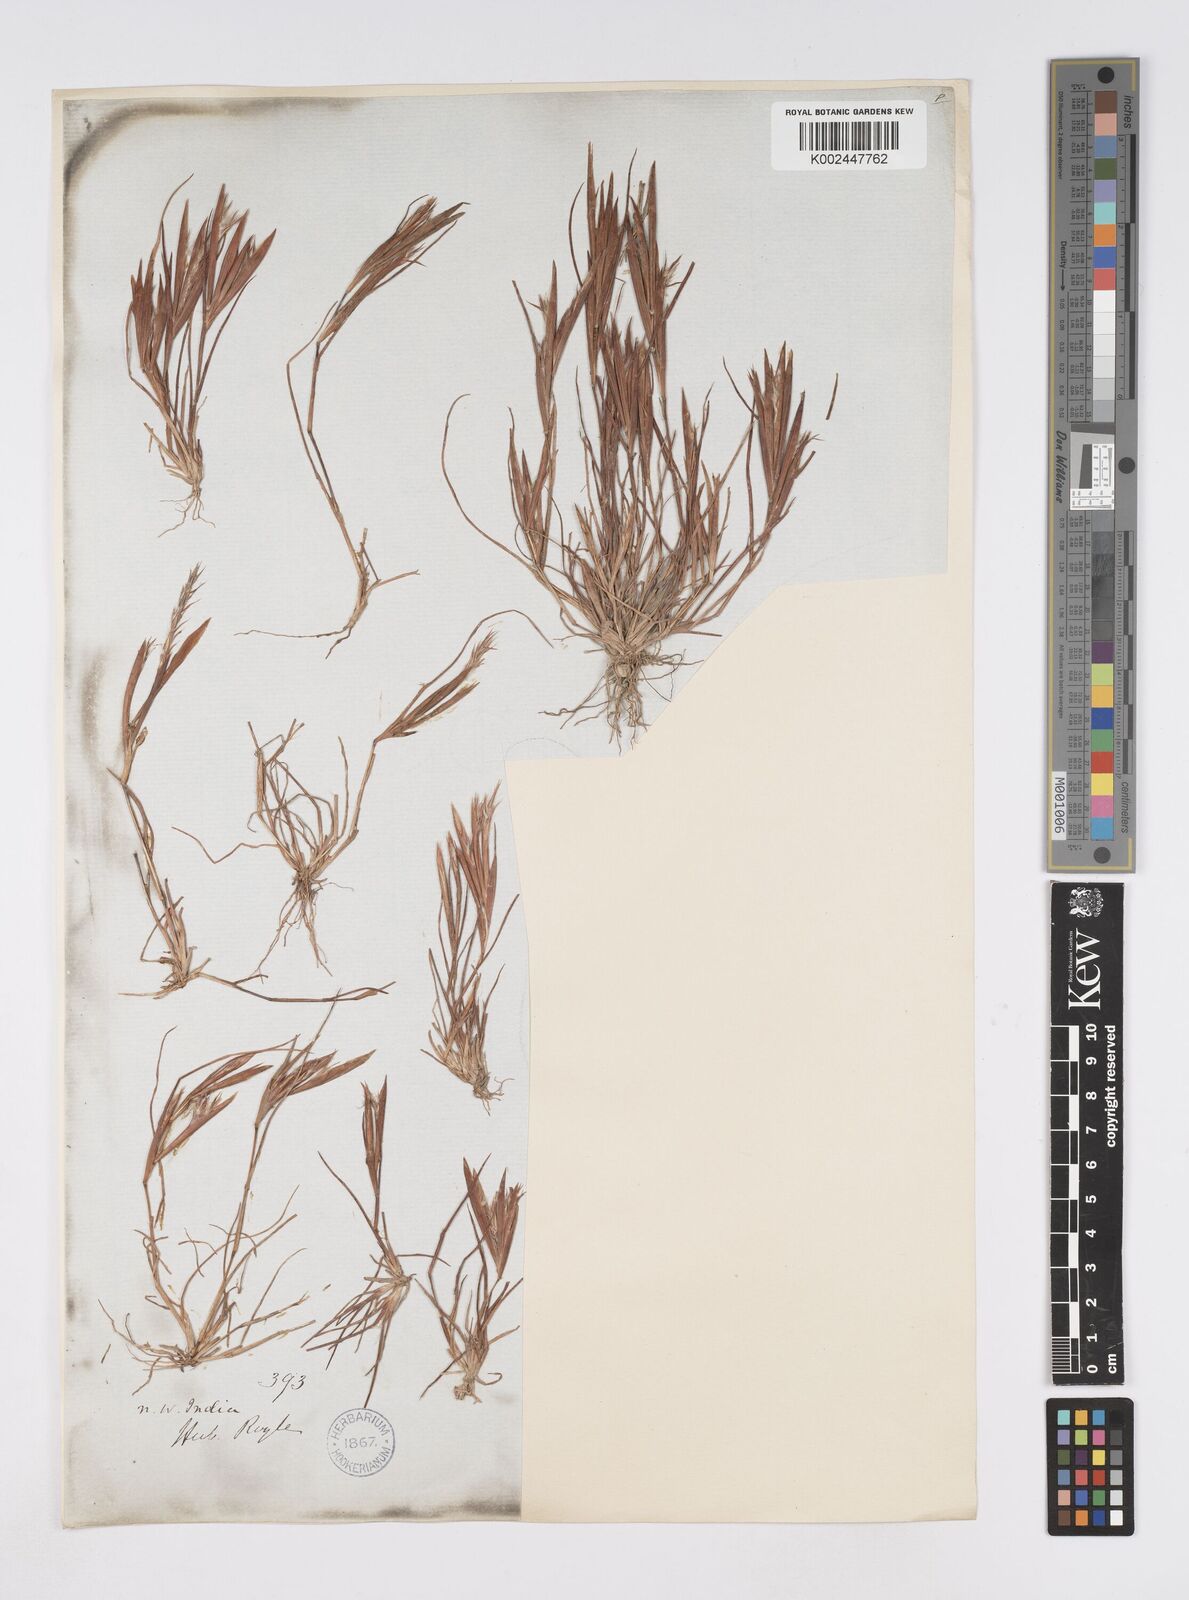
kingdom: Plantae
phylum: Tracheophyta
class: Liliopsida
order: Poales
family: Poaceae
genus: Elionurus
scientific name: Elionurus royleanus
